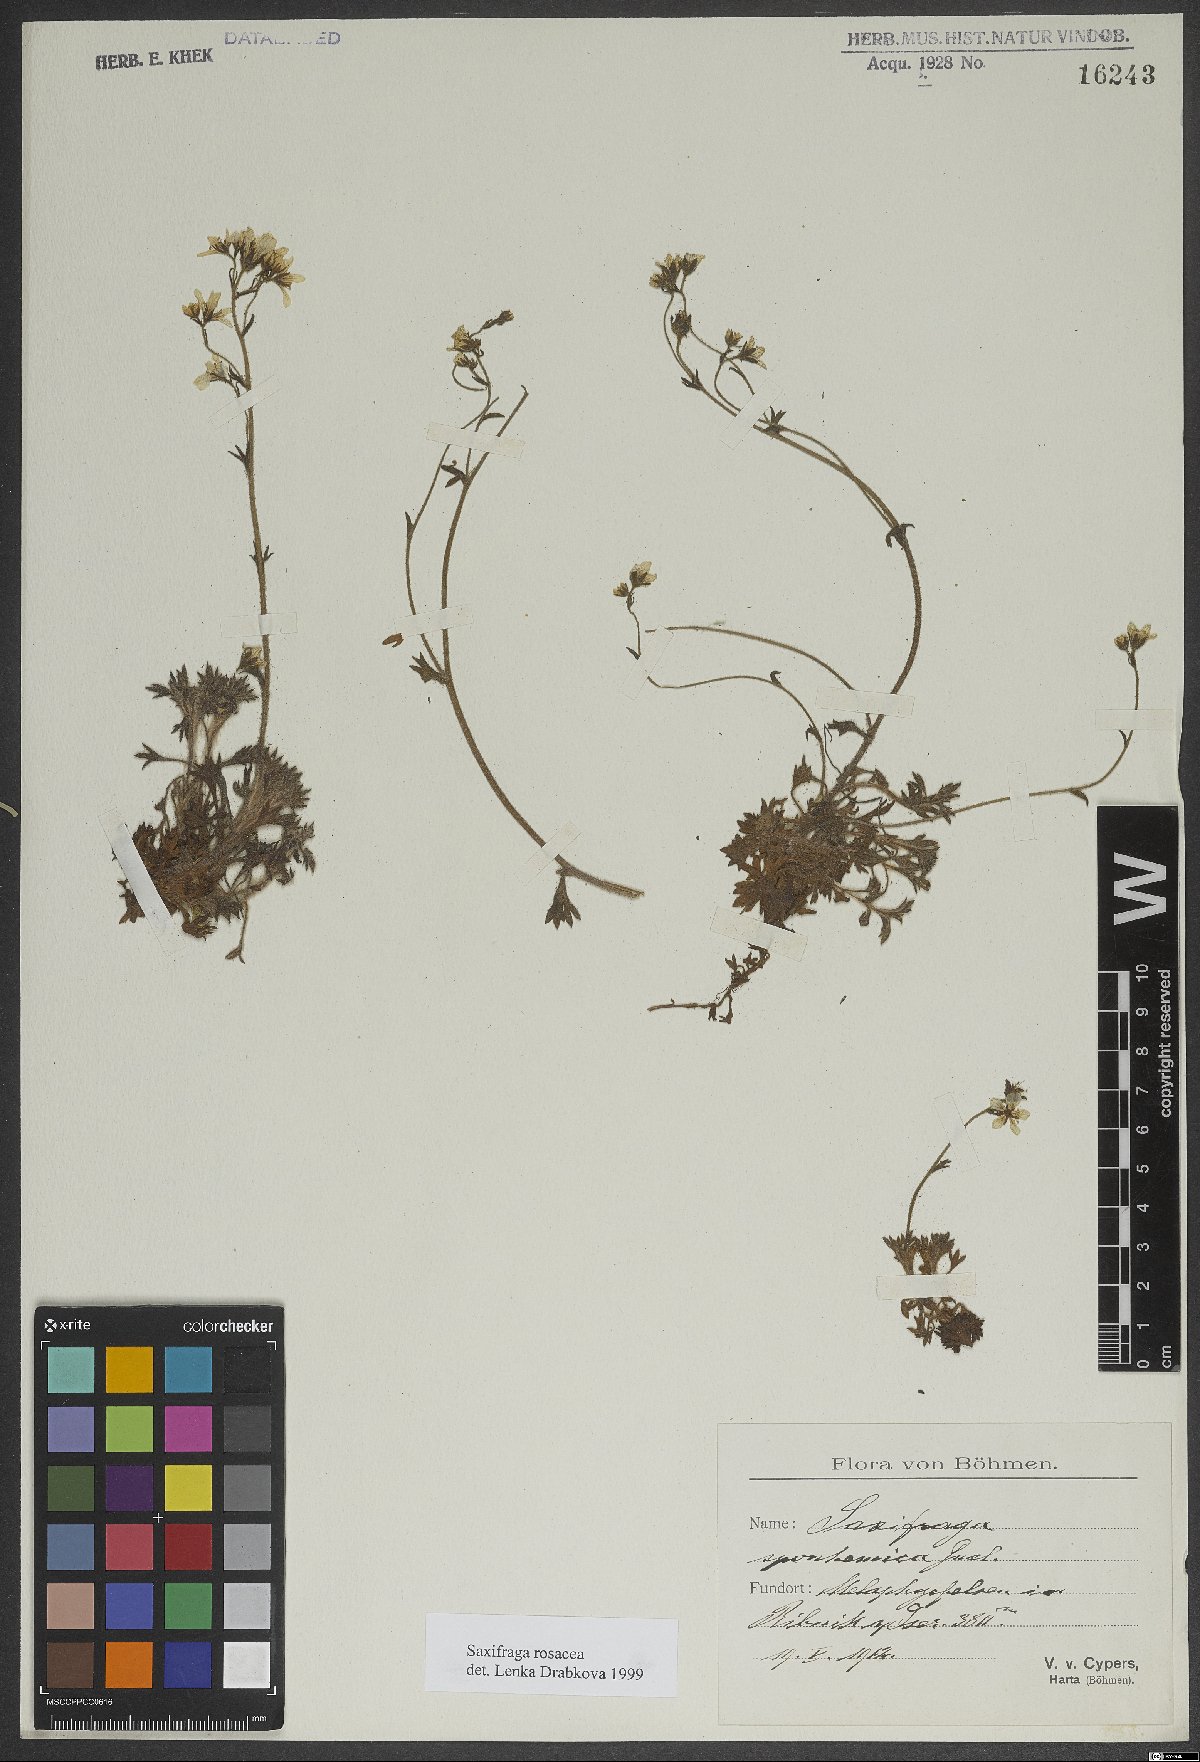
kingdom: Plantae
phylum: Tracheophyta
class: Magnoliopsida
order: Saxifragales
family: Saxifragaceae
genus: Saxifraga
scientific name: Saxifraga rosacea
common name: Irish saxifrage
